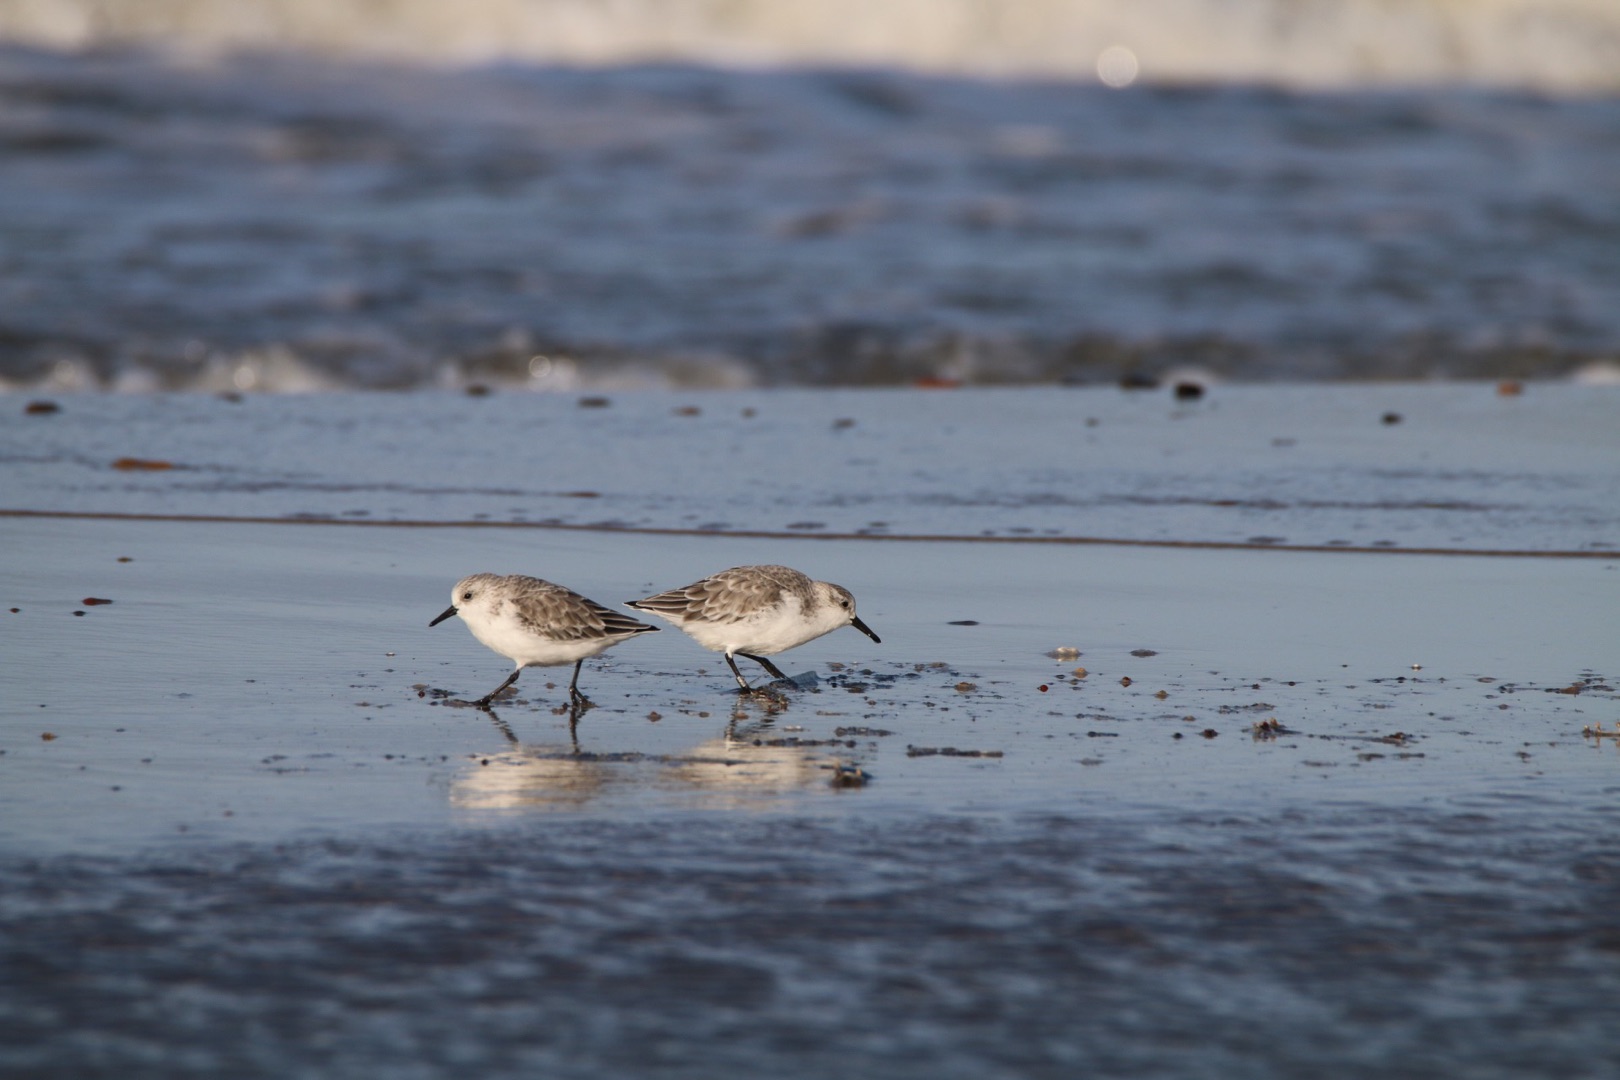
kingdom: Animalia
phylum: Chordata
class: Aves
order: Charadriiformes
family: Scolopacidae
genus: Calidris
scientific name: Calidris alba
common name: Sandløber
